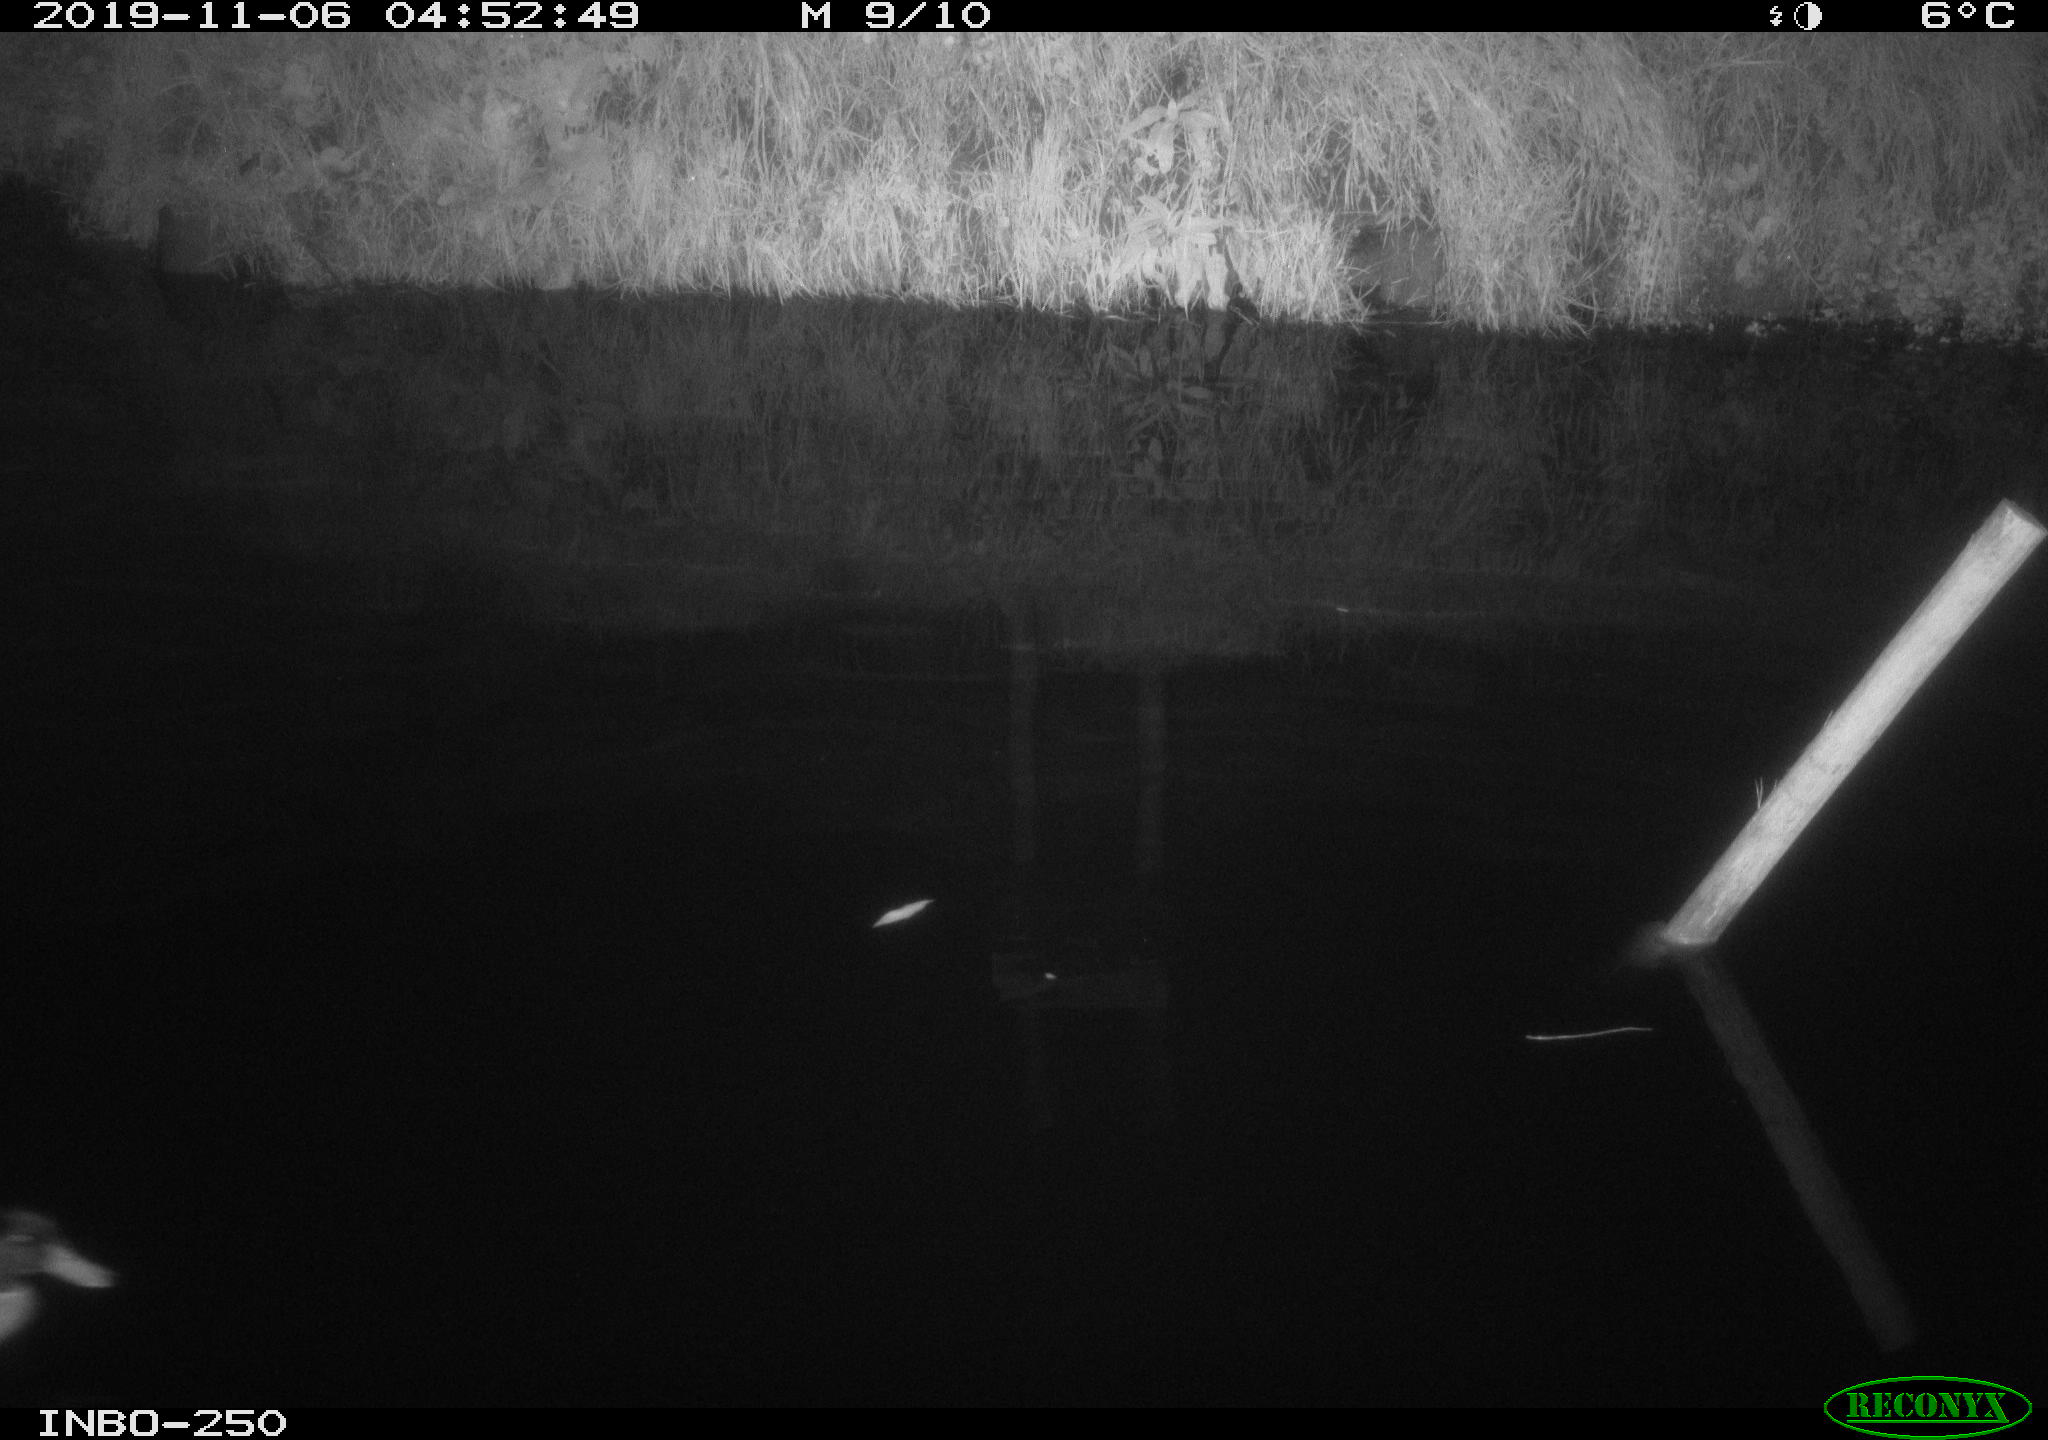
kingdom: Animalia
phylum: Chordata
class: Aves
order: Anseriformes
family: Anatidae
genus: Anas
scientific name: Anas platyrhynchos
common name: Mallard
